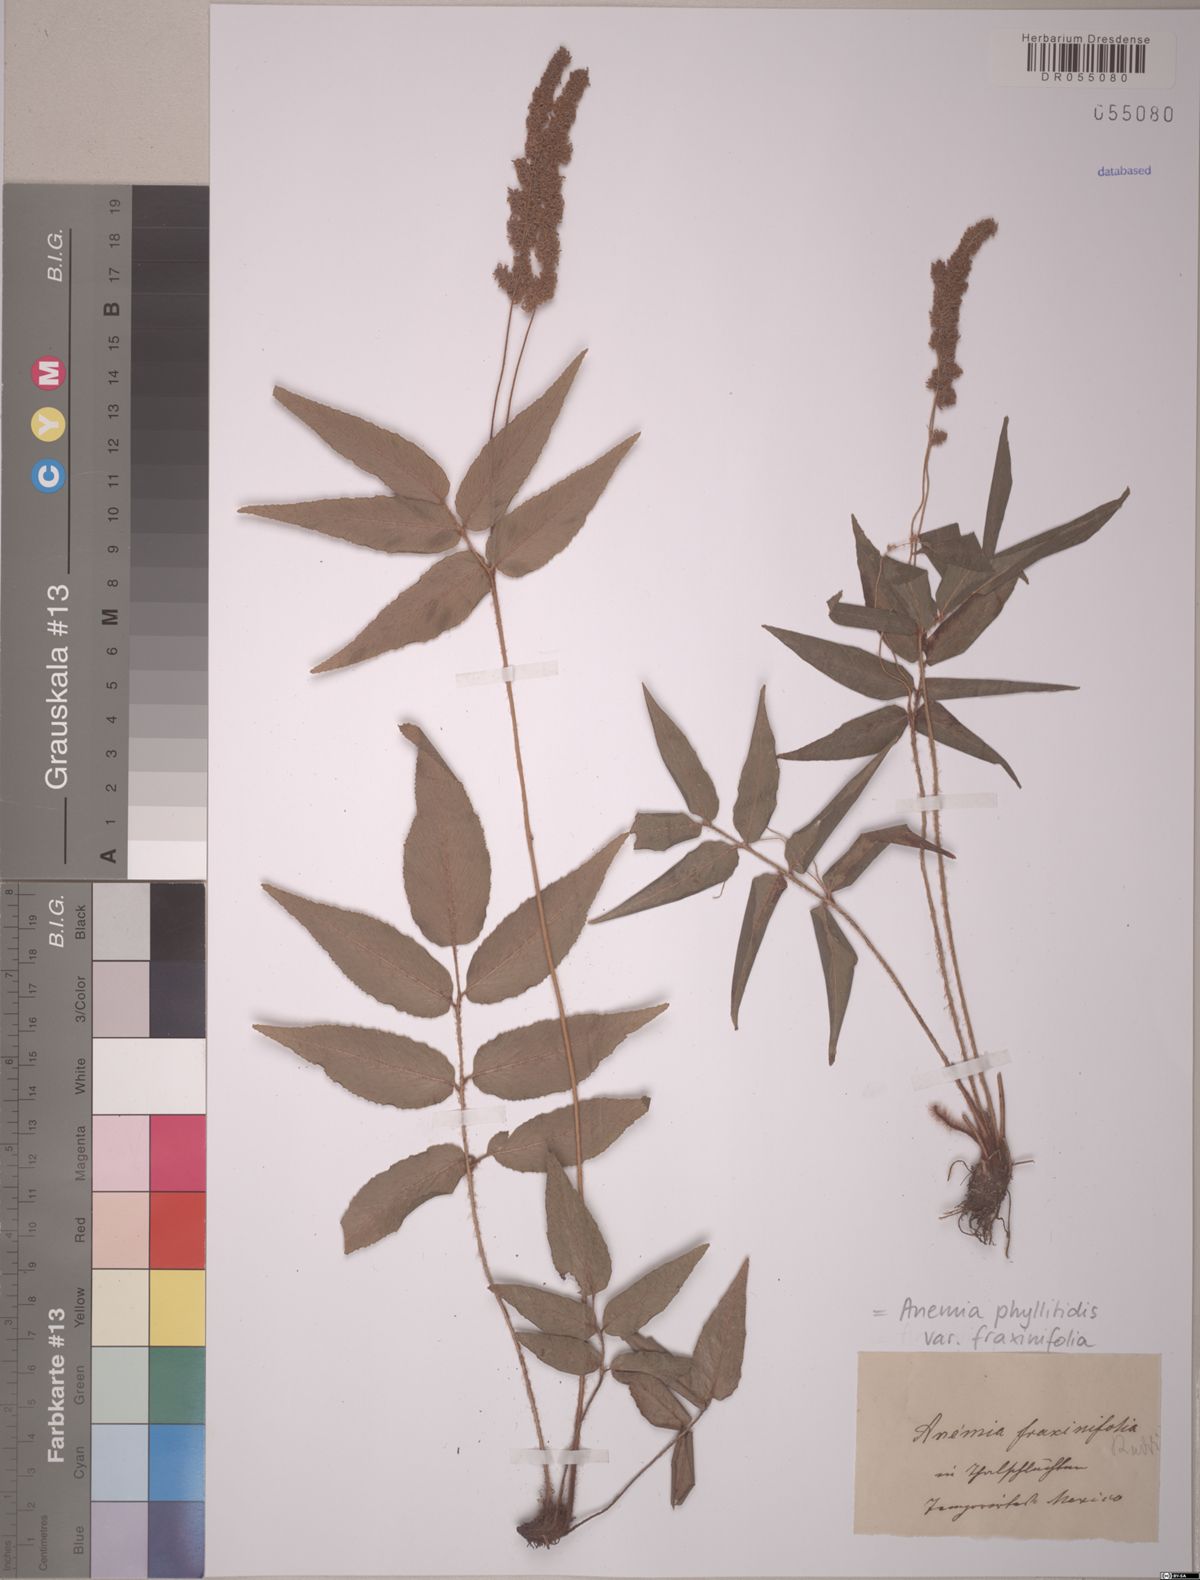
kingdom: Plantae
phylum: Tracheophyta
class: Polypodiopsida
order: Schizaeales
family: Anemiaceae
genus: Anemia
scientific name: Anemia phyllitidis
